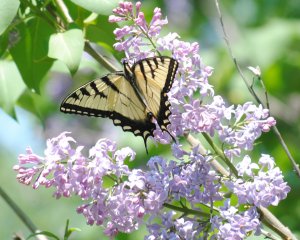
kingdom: Animalia
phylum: Arthropoda
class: Insecta
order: Lepidoptera
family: Papilionidae
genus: Pterourus
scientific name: Pterourus glaucus
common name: Eastern Tiger Swallowtail
